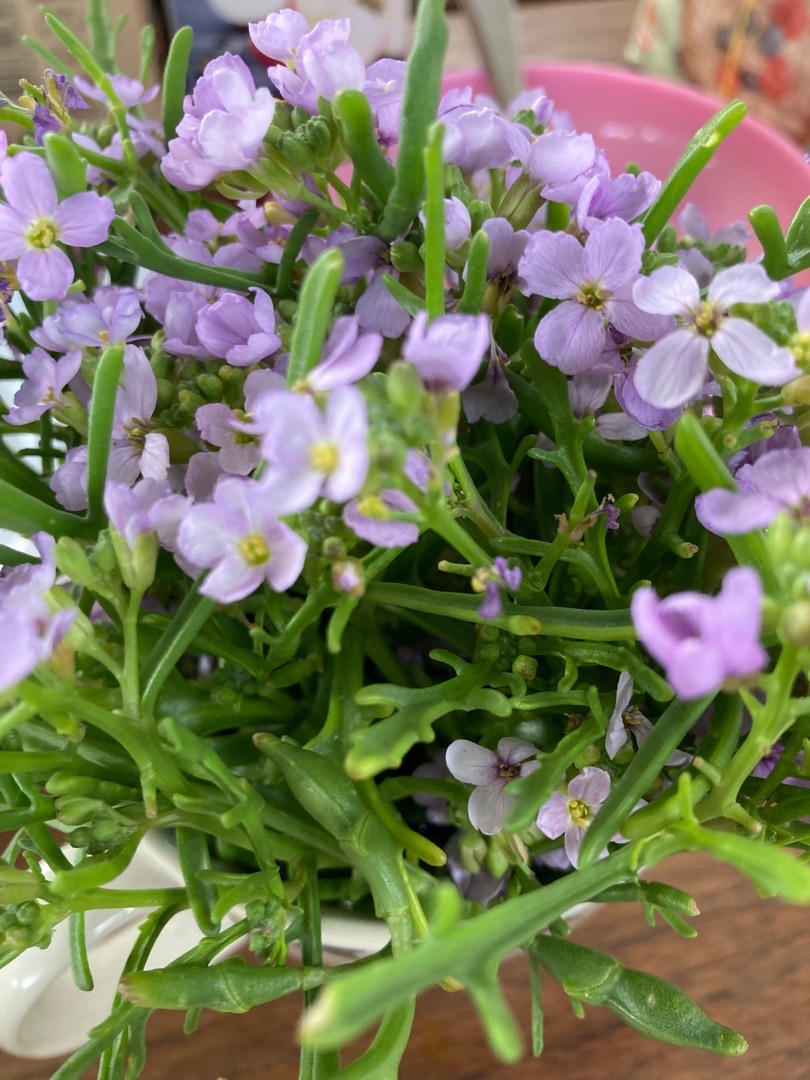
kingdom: Plantae
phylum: Tracheophyta
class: Magnoliopsida
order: Brassicales
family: Brassicaceae
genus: Cakile
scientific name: Cakile maritima
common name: Strandsennep
